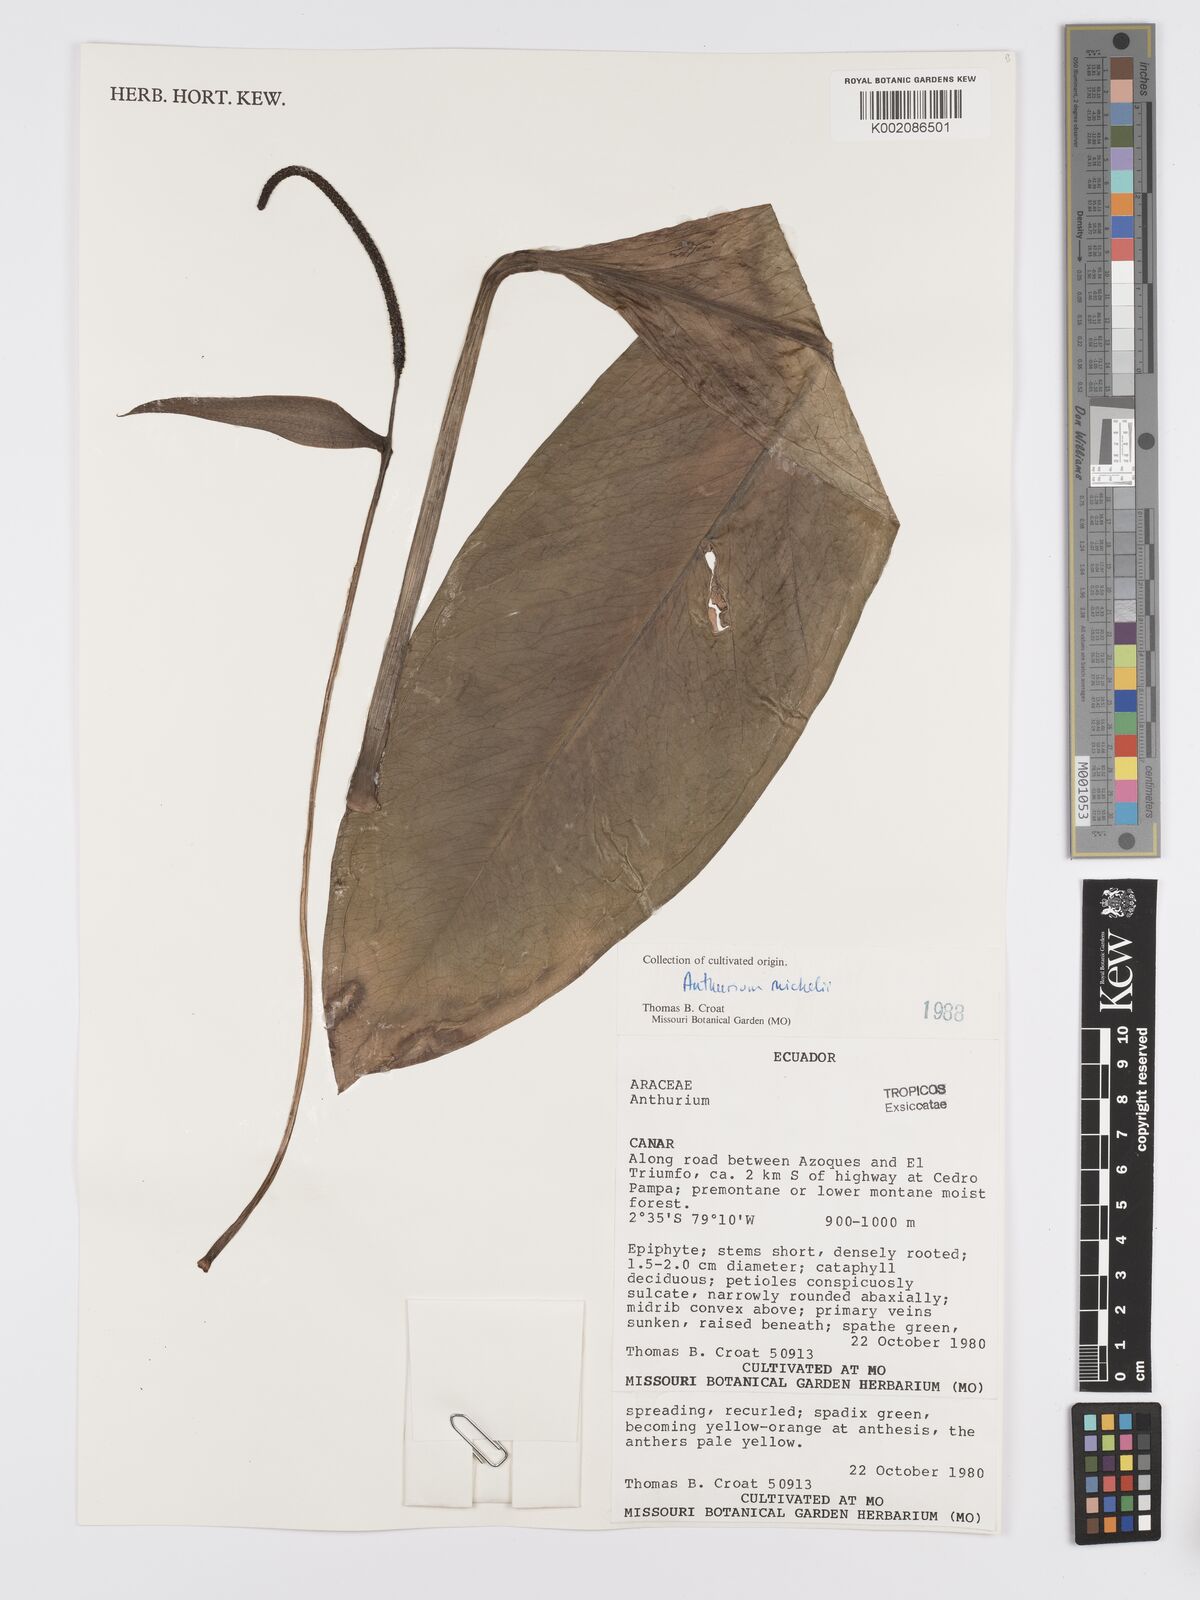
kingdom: Plantae
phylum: Tracheophyta
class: Liliopsida
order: Alismatales
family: Araceae
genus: Anthurium
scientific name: Anthurium michelii
